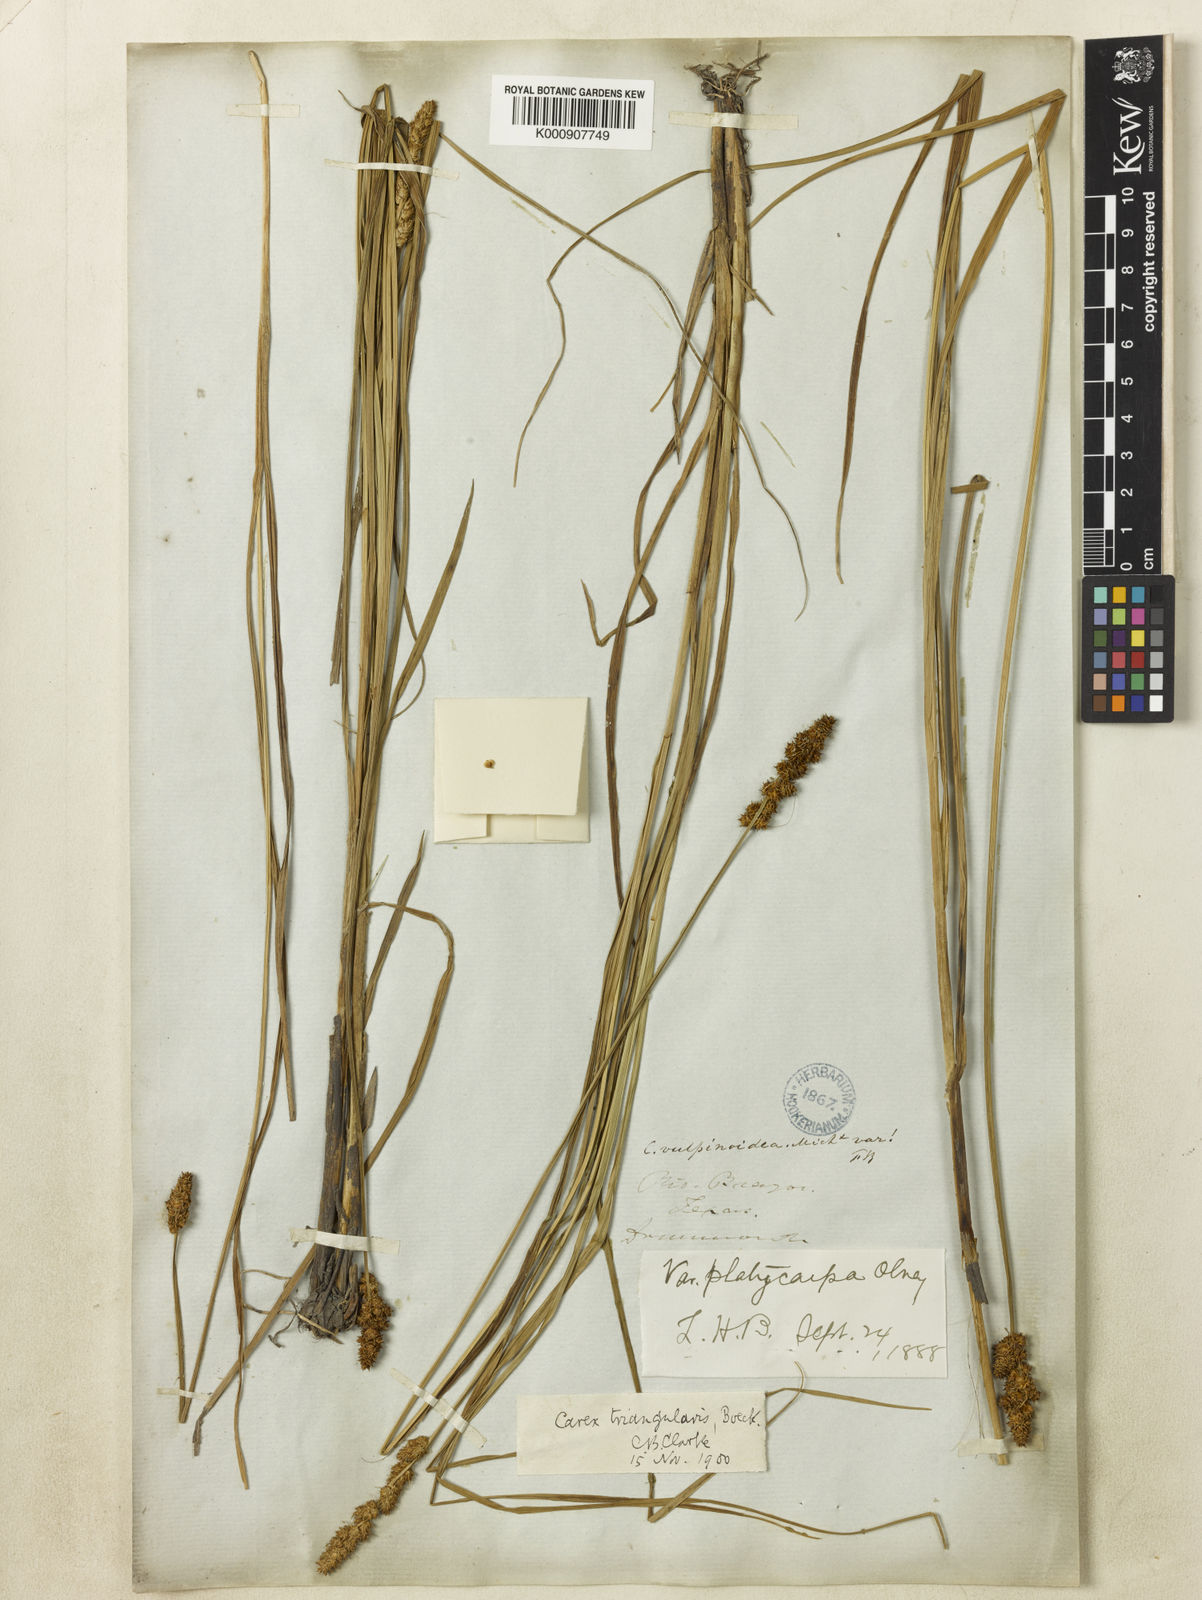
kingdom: Plantae
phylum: Tracheophyta
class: Liliopsida
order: Poales
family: Cyperaceae
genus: Carex
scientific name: Carex triangularis
